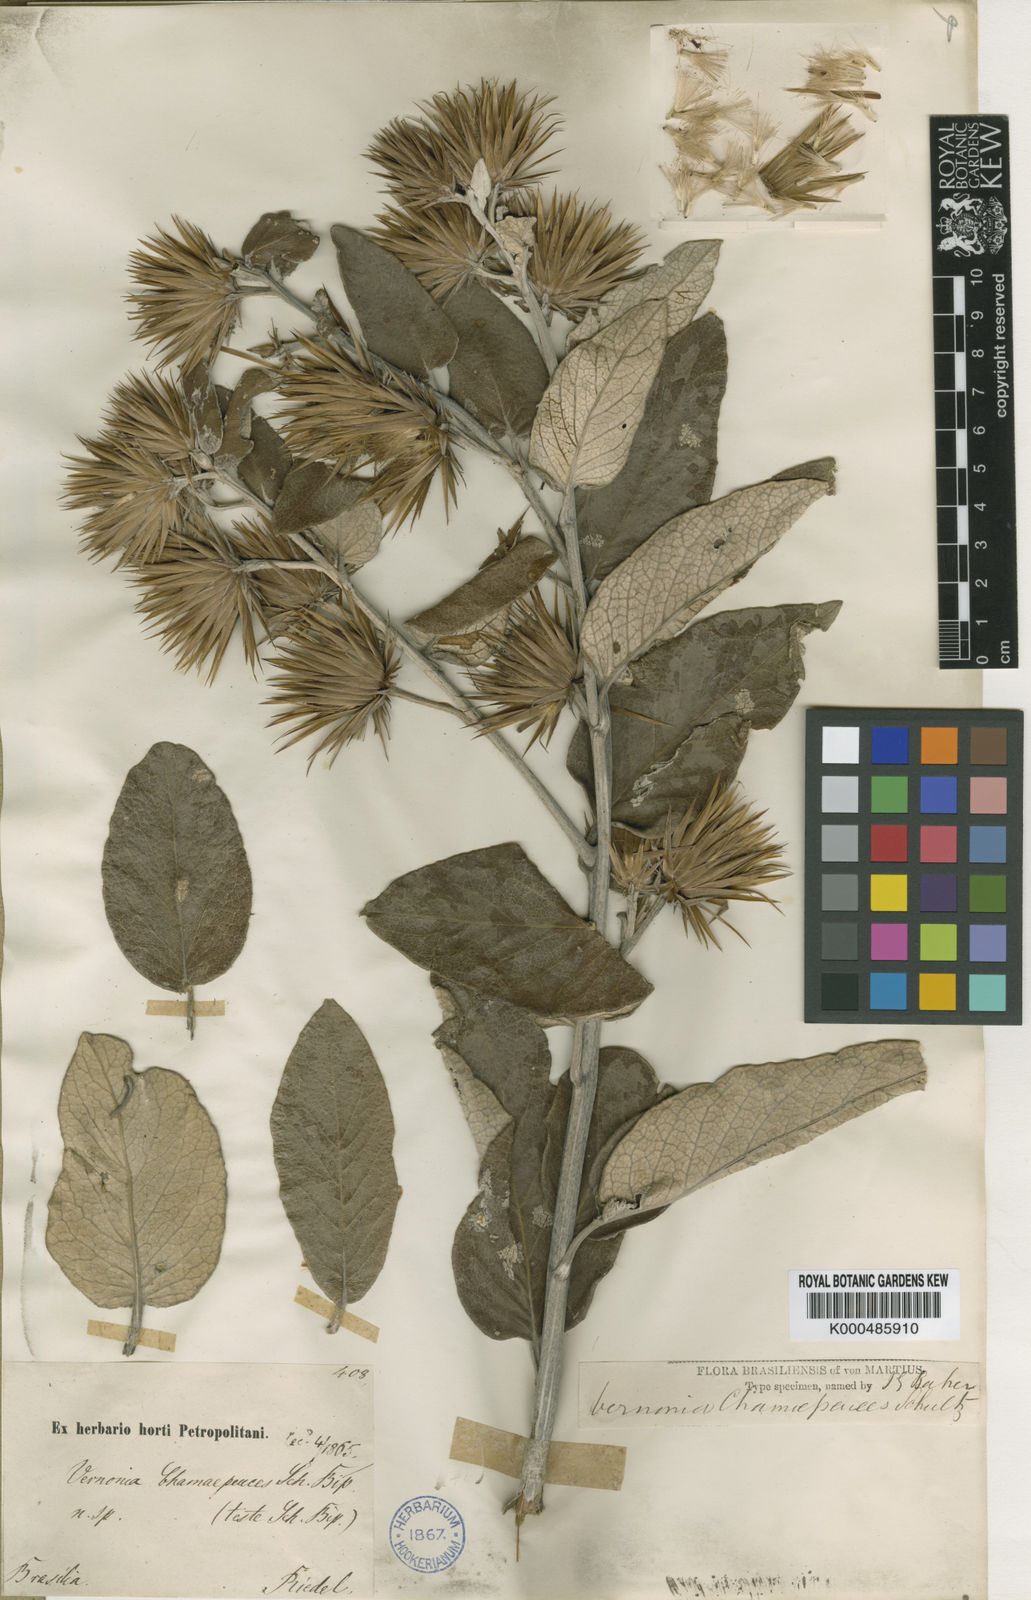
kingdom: Plantae
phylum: Tracheophyta
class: Magnoliopsida
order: Asterales
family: Asteraceae
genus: Lessingianthus
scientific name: Lessingianthus chamaepeuces
